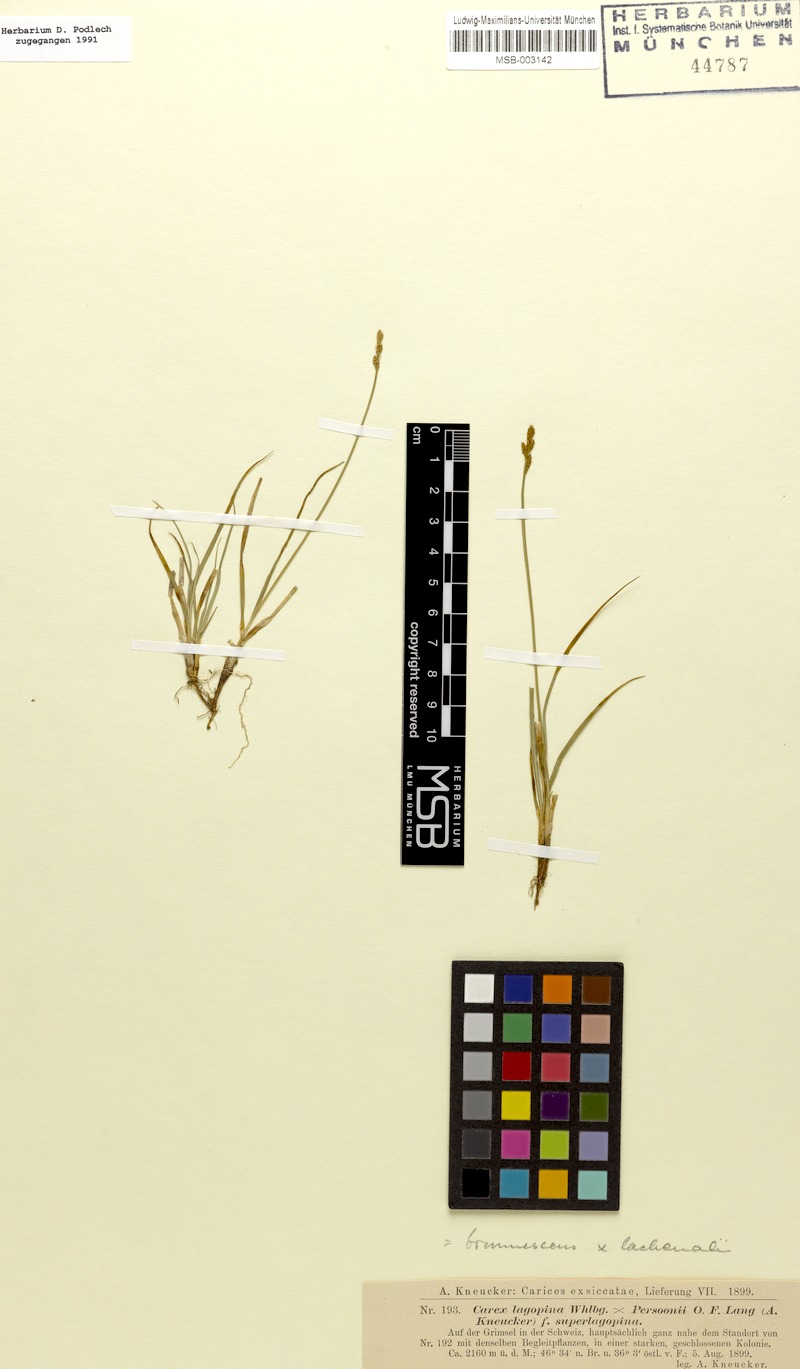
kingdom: Plantae
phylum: Tracheophyta
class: Liliopsida
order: Poales
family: Cyperaceae
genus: Carex
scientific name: Carex
